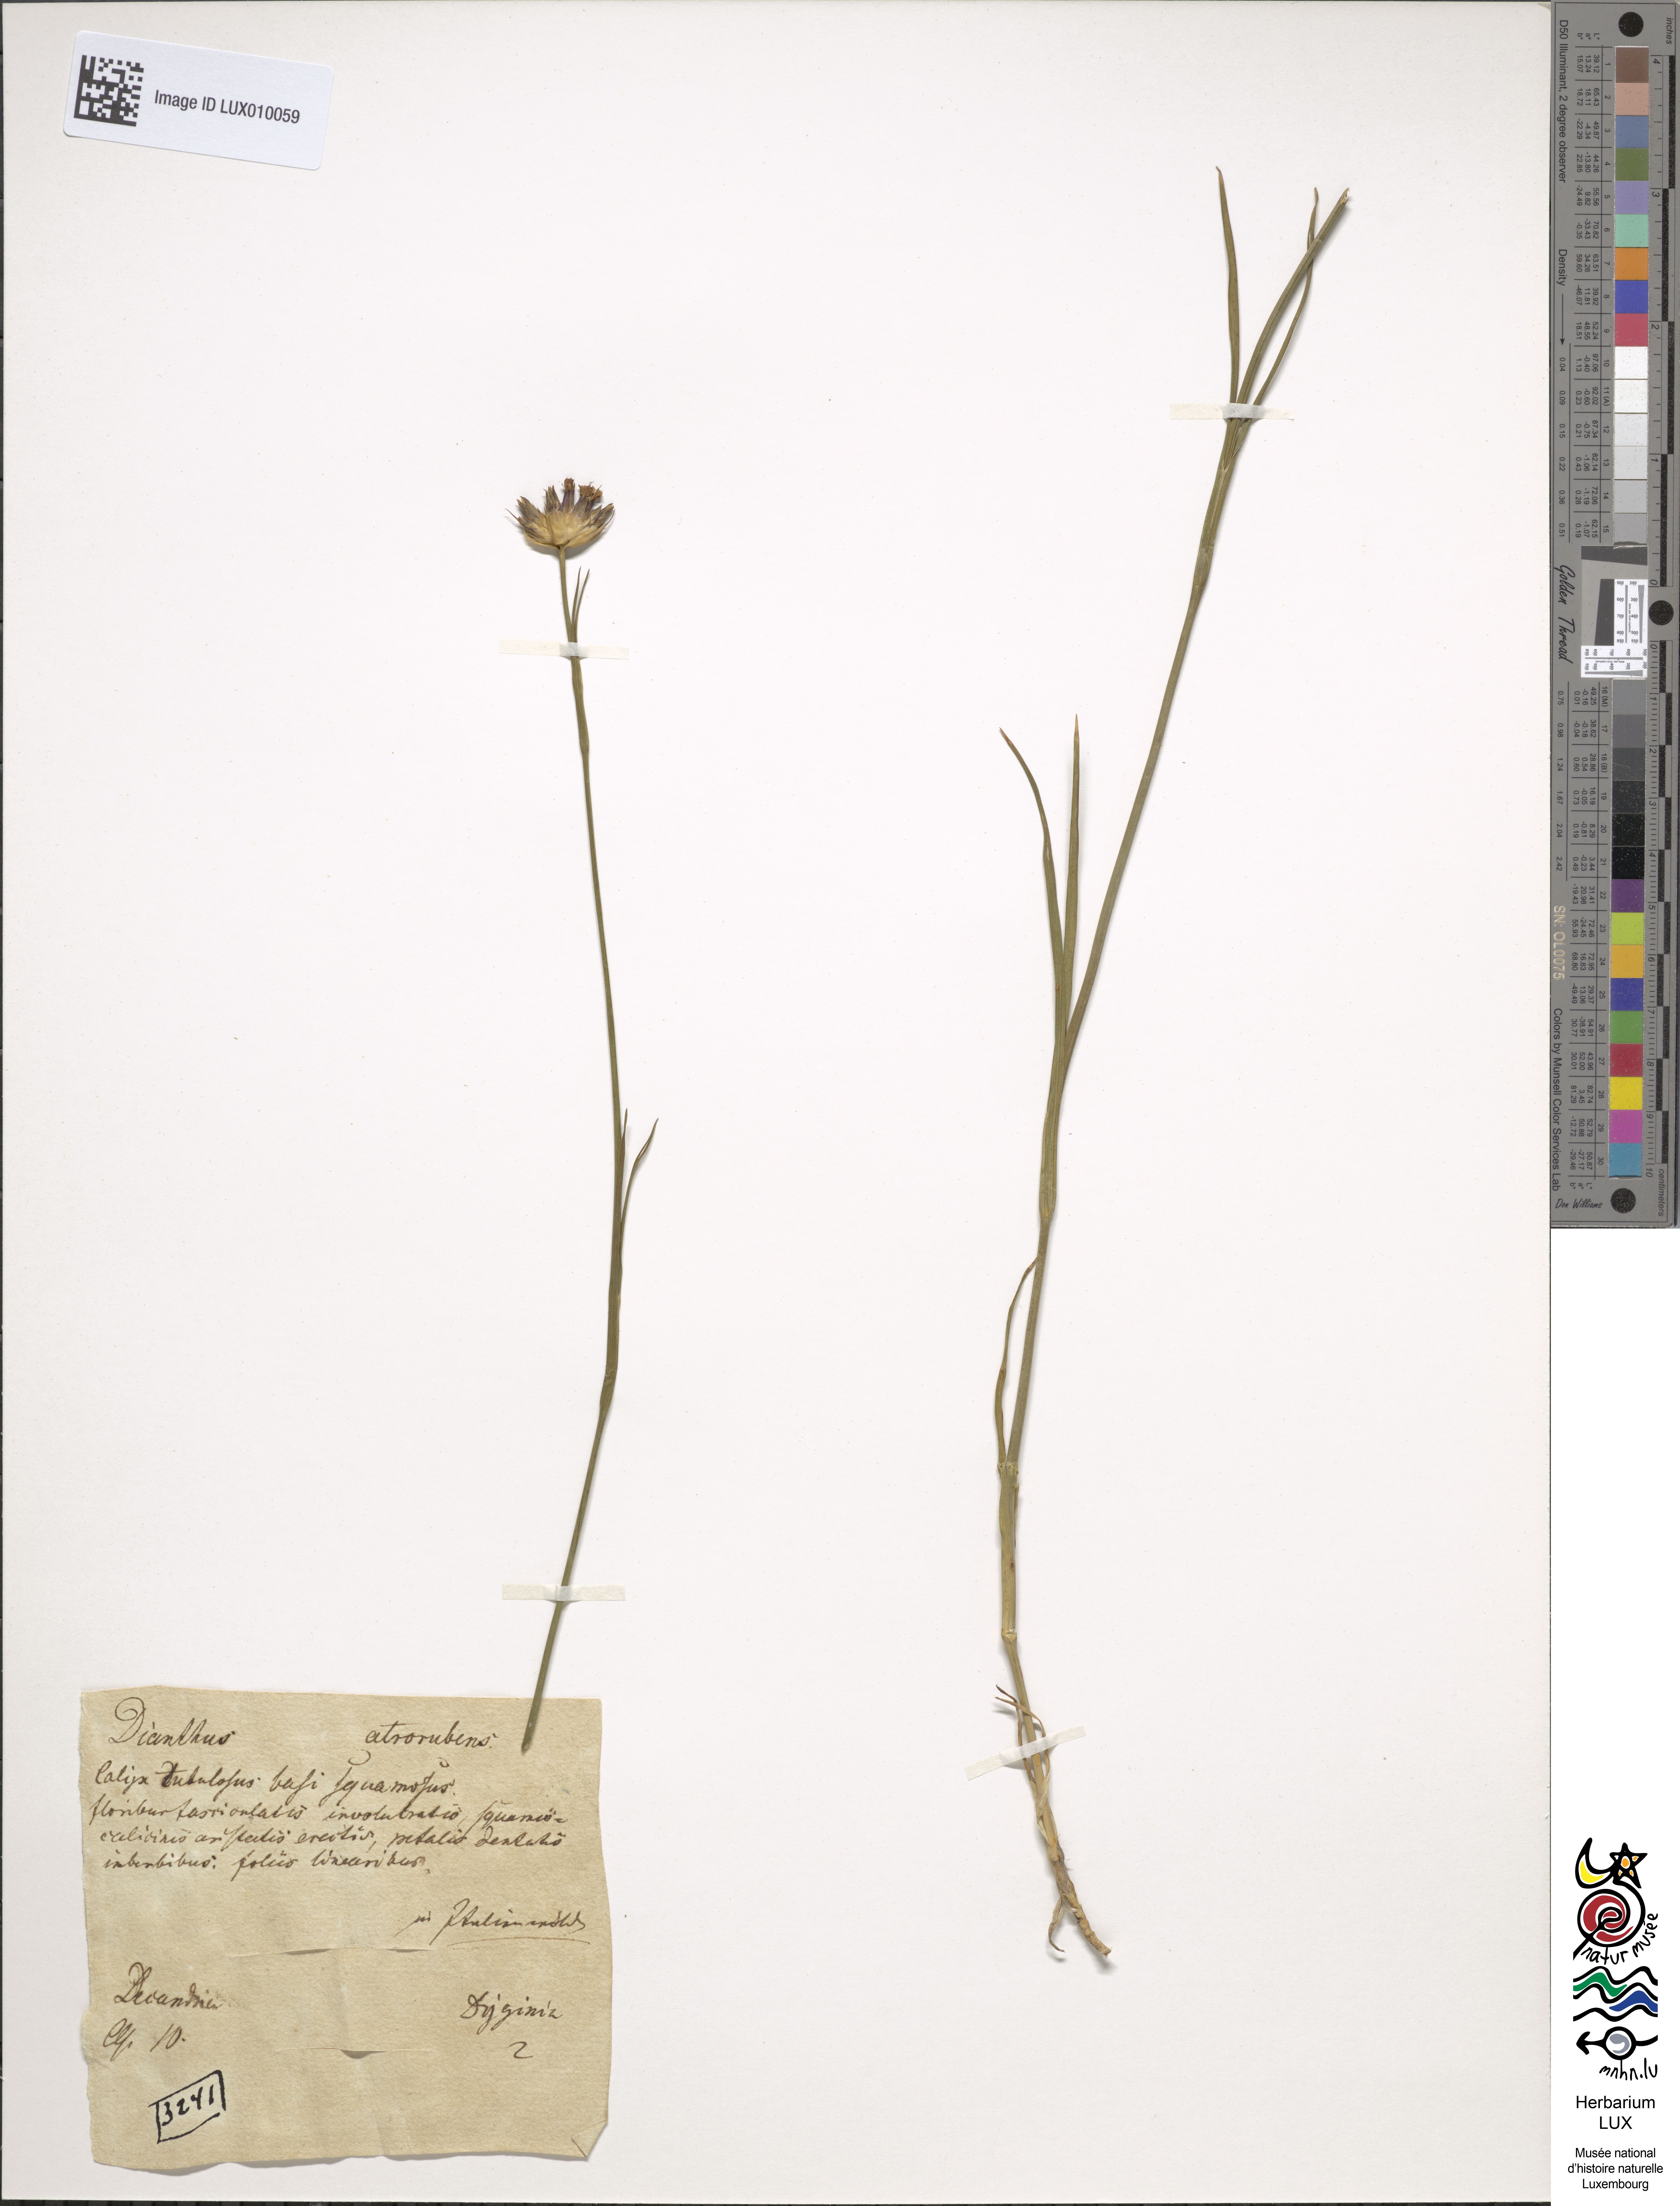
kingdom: Plantae
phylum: Tracheophyta
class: Magnoliopsida
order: Caryophyllales
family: Caryophyllaceae
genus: Dianthus
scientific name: Dianthus carthusianorum
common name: Carthusian pink
